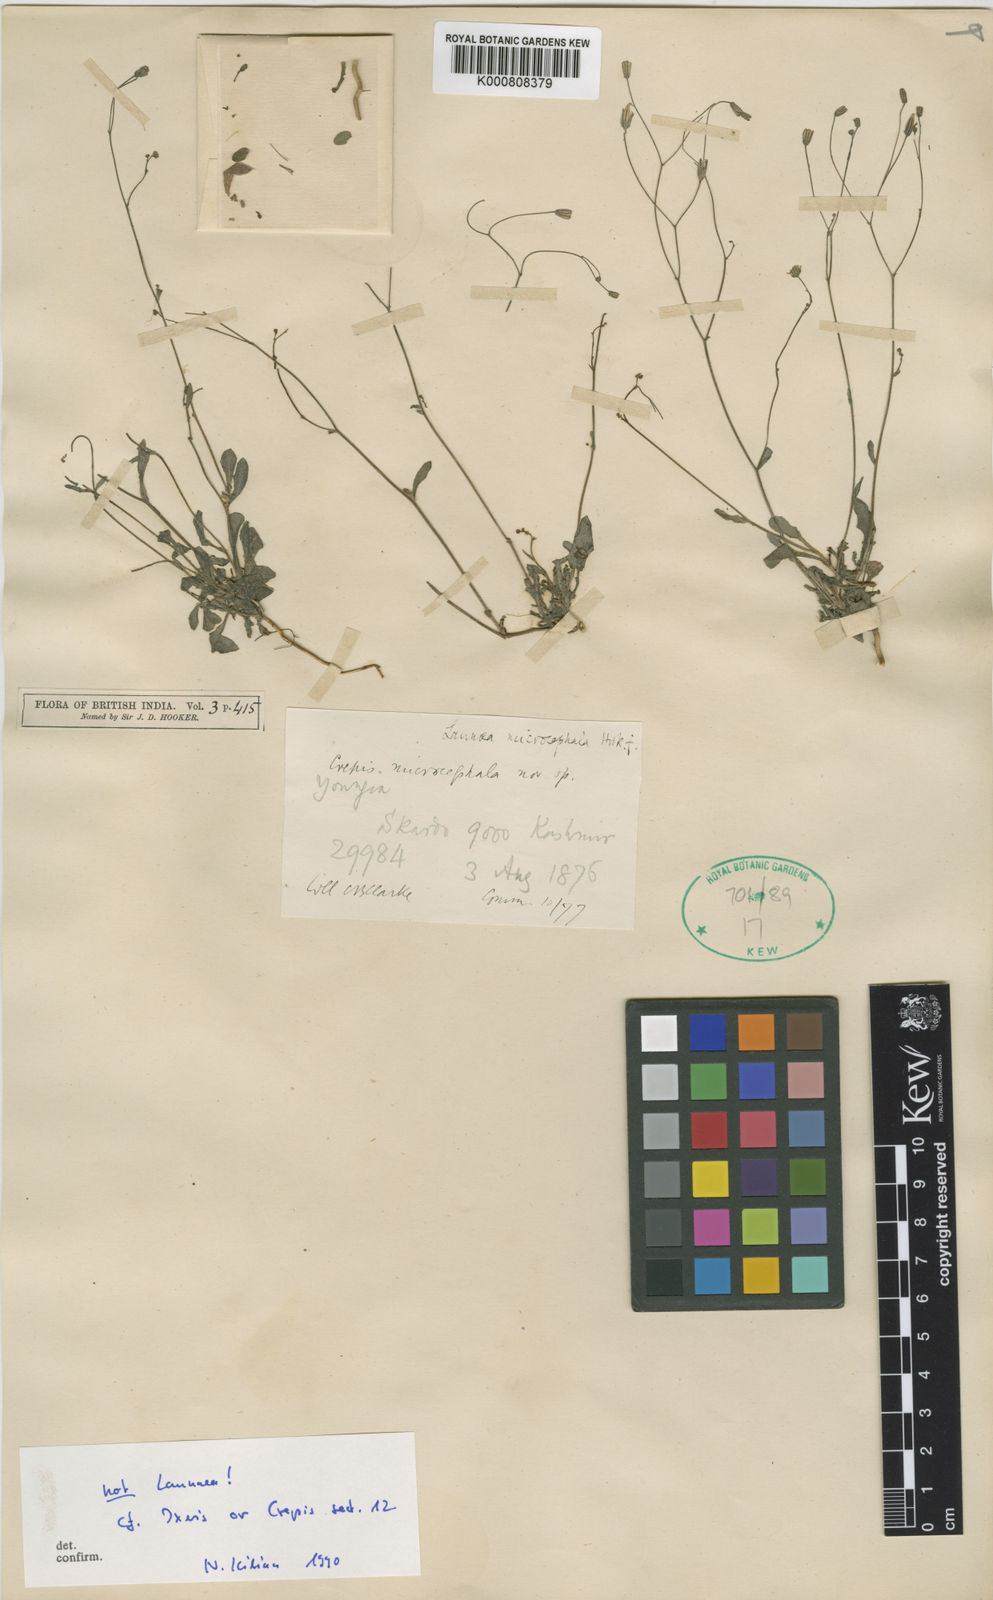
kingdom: Plantae
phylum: Tracheophyta
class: Magnoliopsida
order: Asterales
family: Asteraceae
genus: Ixeris
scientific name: Ixeris
